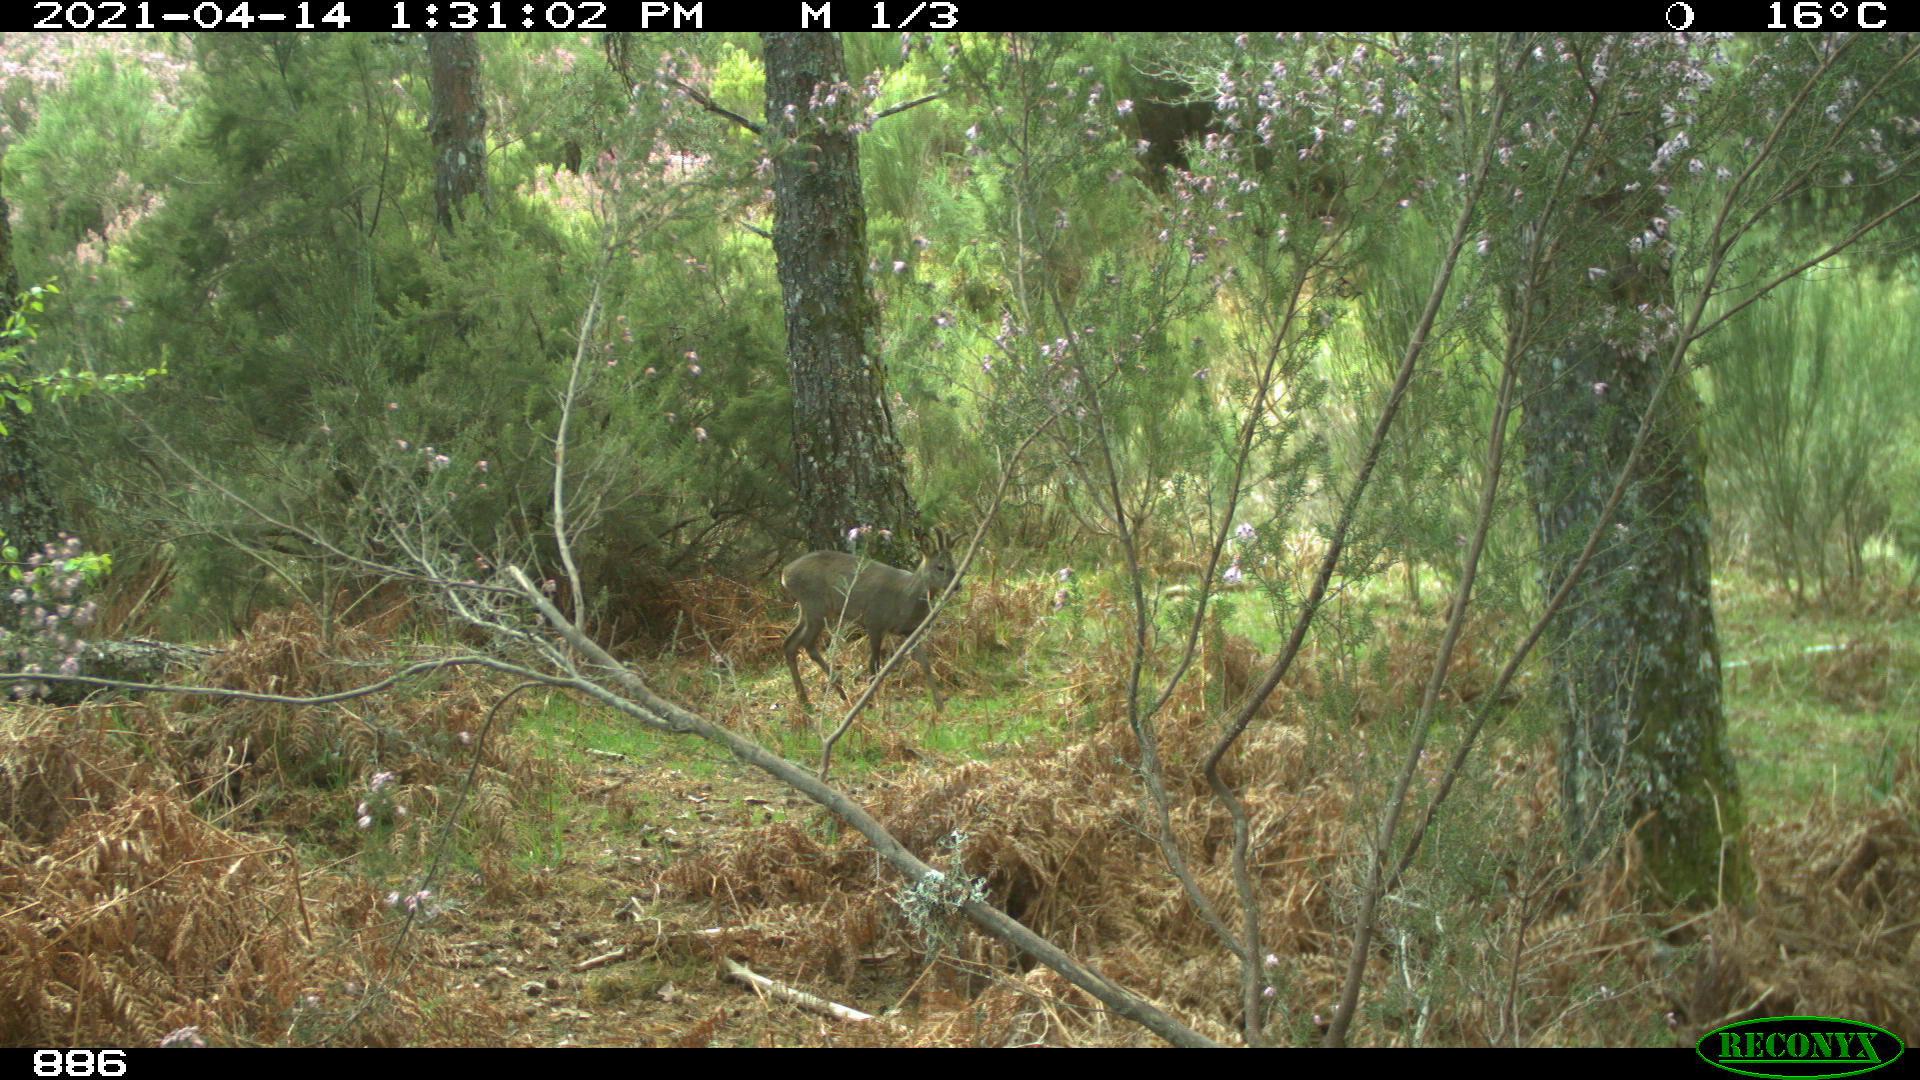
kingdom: Animalia
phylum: Chordata
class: Mammalia
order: Artiodactyla
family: Cervidae
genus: Capreolus
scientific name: Capreolus capreolus
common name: Western roe deer
